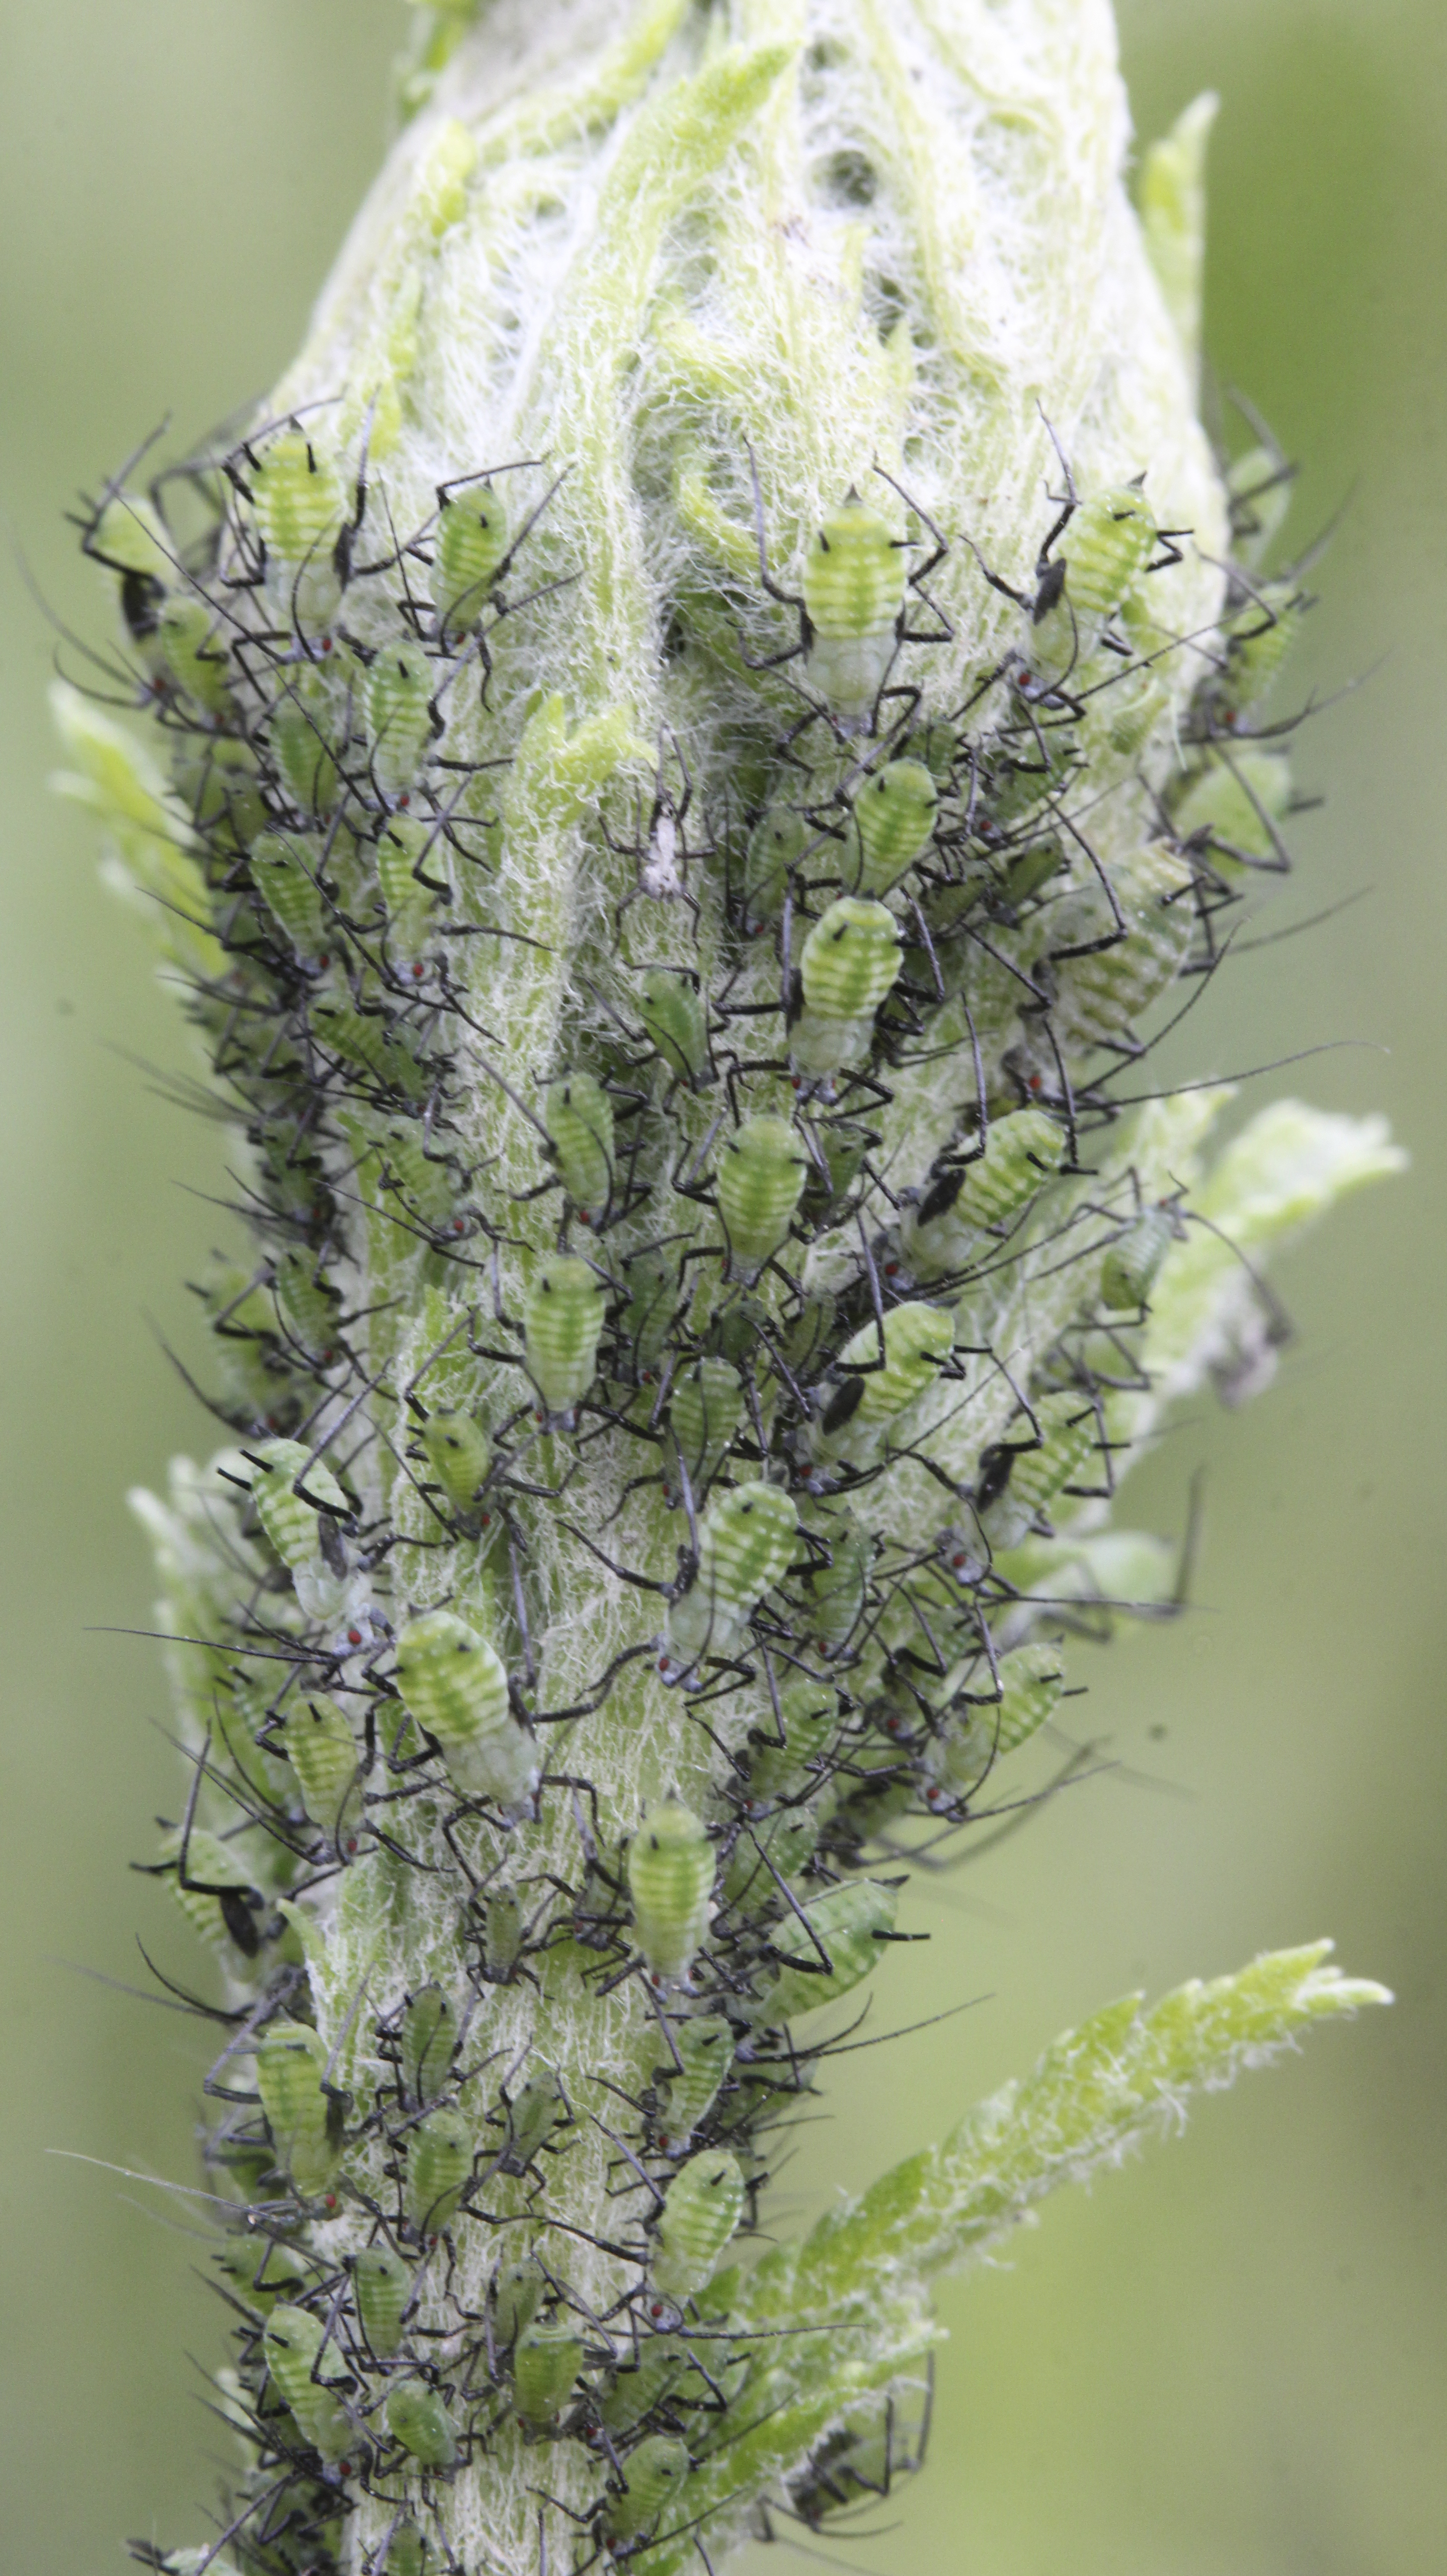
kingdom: Animalia
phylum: Arthropoda
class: Insecta
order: Hemiptera
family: Aphididae
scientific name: Aphididae
